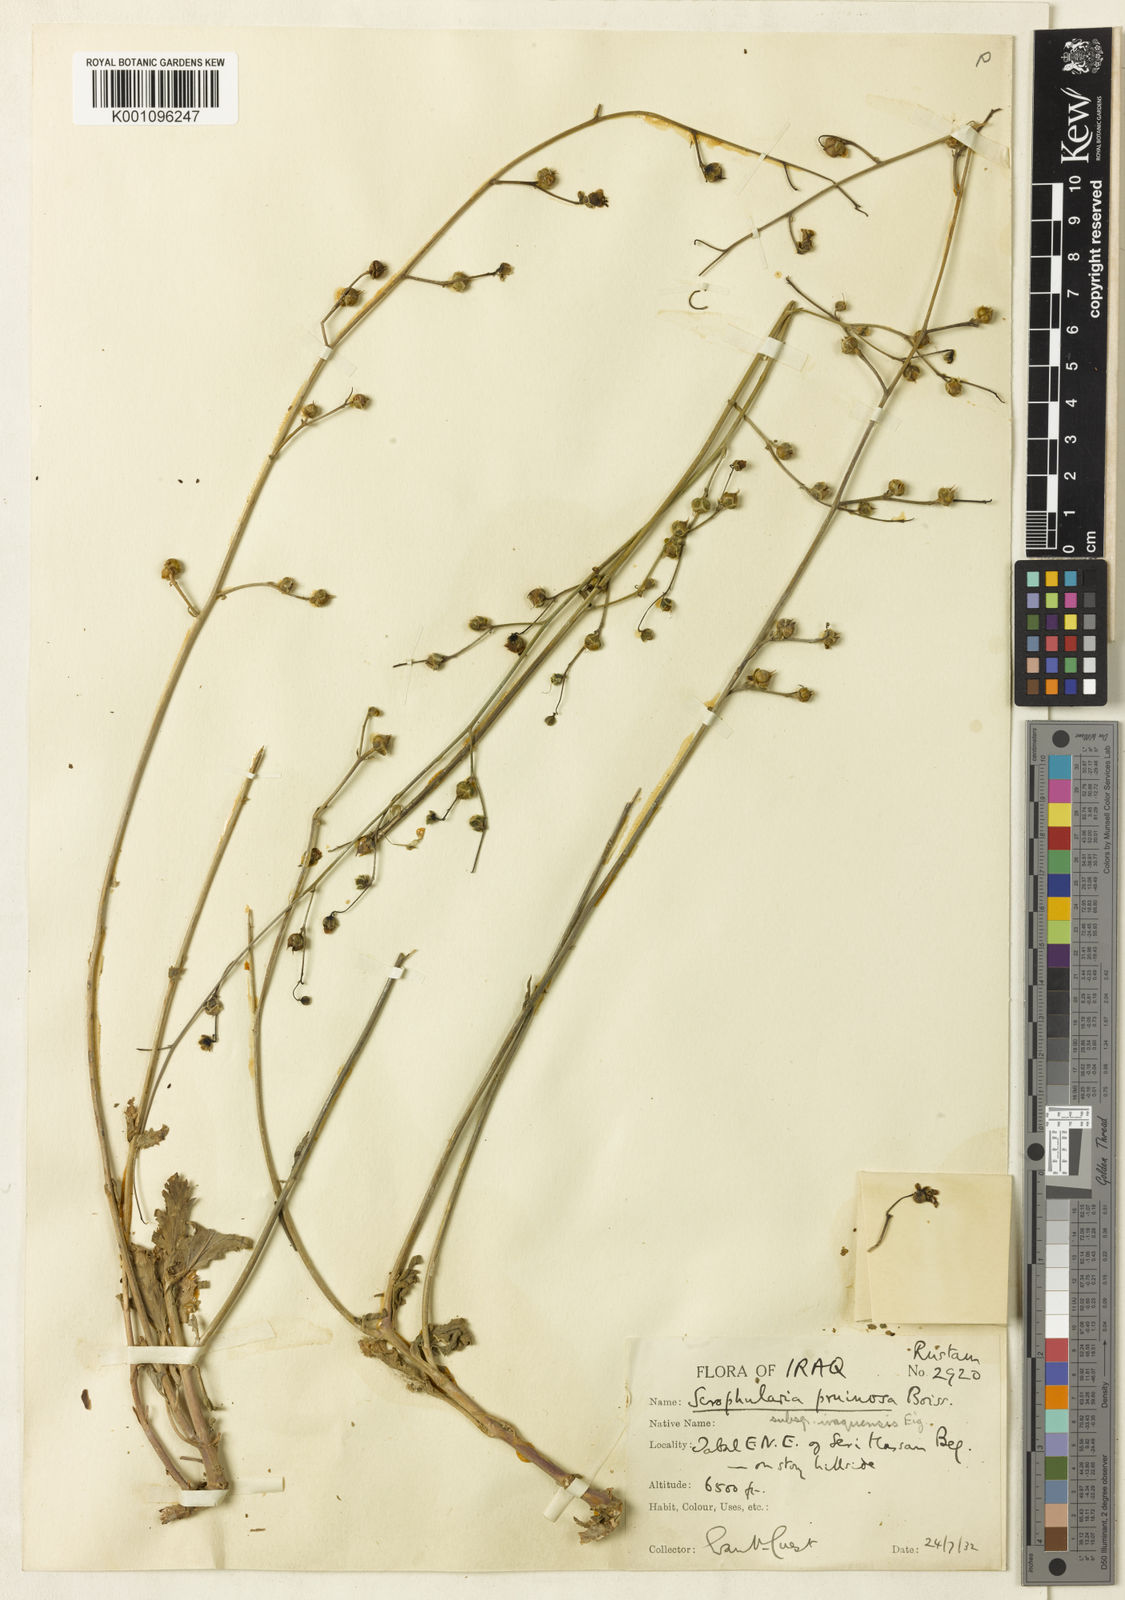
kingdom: Plantae
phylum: Tracheophyta
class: Magnoliopsida
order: Lamiales
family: Scrophulariaceae
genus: Scrophularia
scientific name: Scrophularia pruinosa
